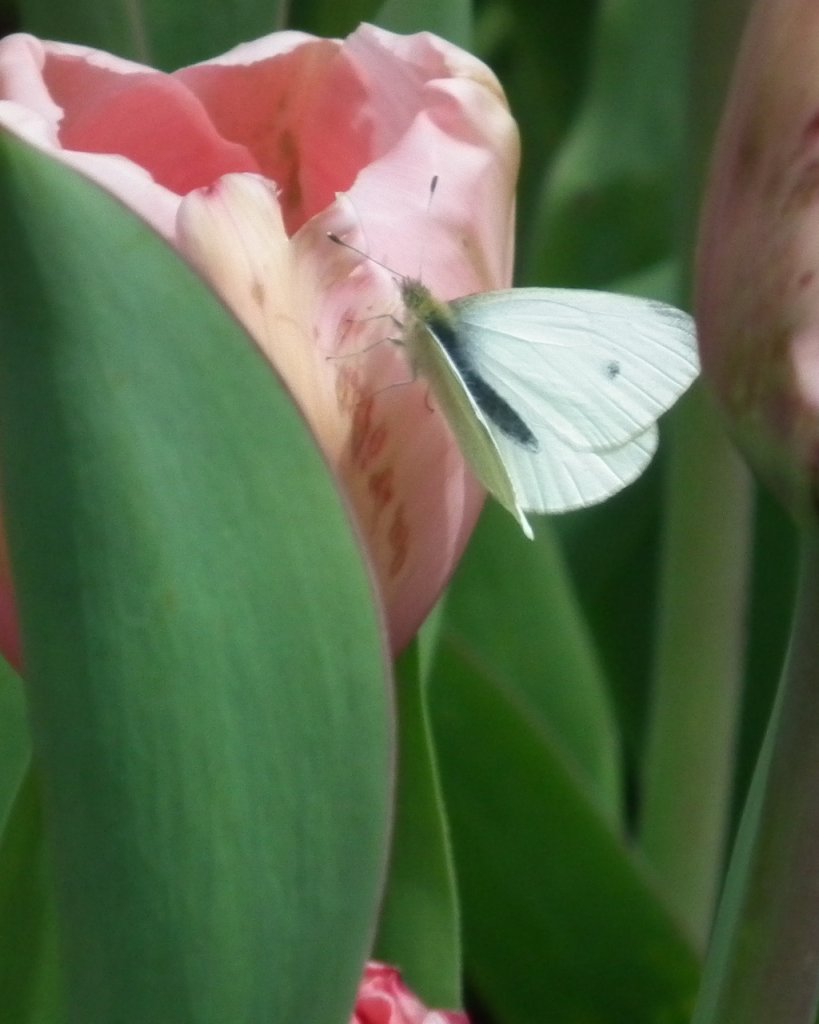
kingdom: Animalia
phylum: Arthropoda
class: Insecta
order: Lepidoptera
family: Pieridae
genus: Pieris
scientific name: Pieris rapae
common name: Cabbage White
